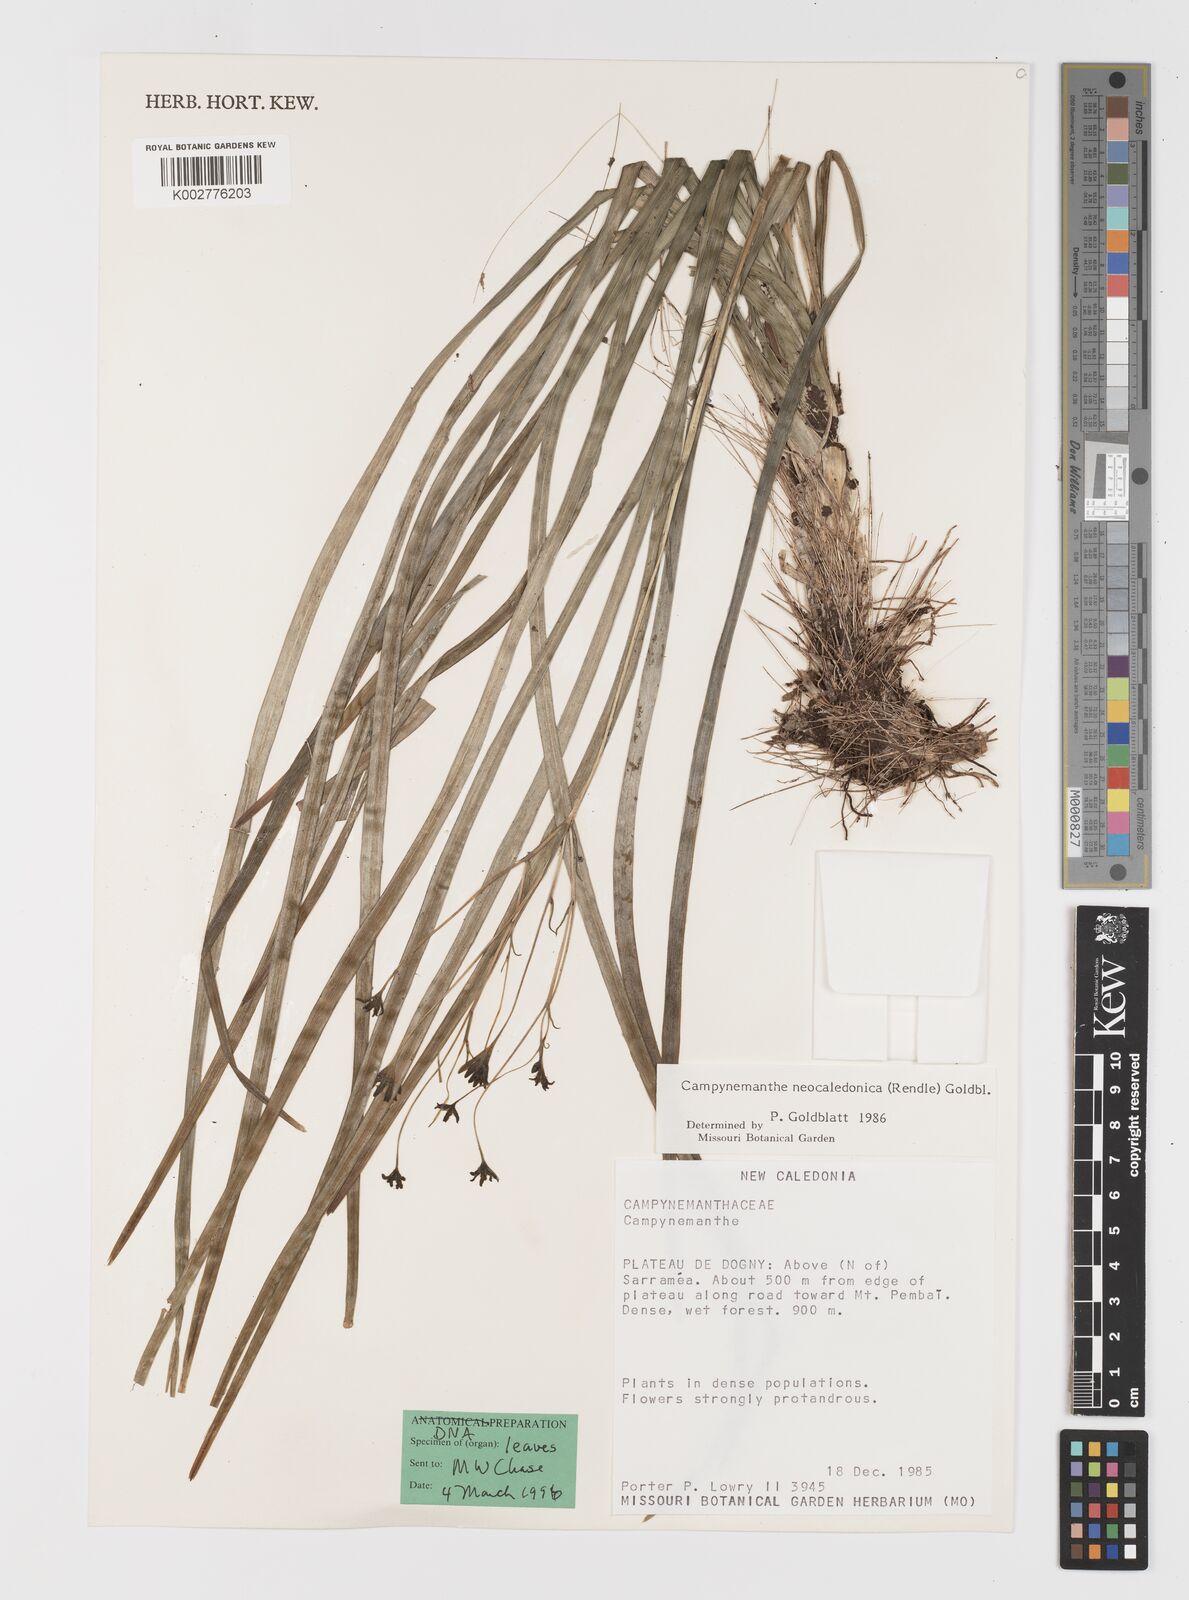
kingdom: Plantae
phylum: Tracheophyta
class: Liliopsida
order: Liliales
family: Campynemataceae
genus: Campynemanthe
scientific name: Campynemanthe neocaledonica
